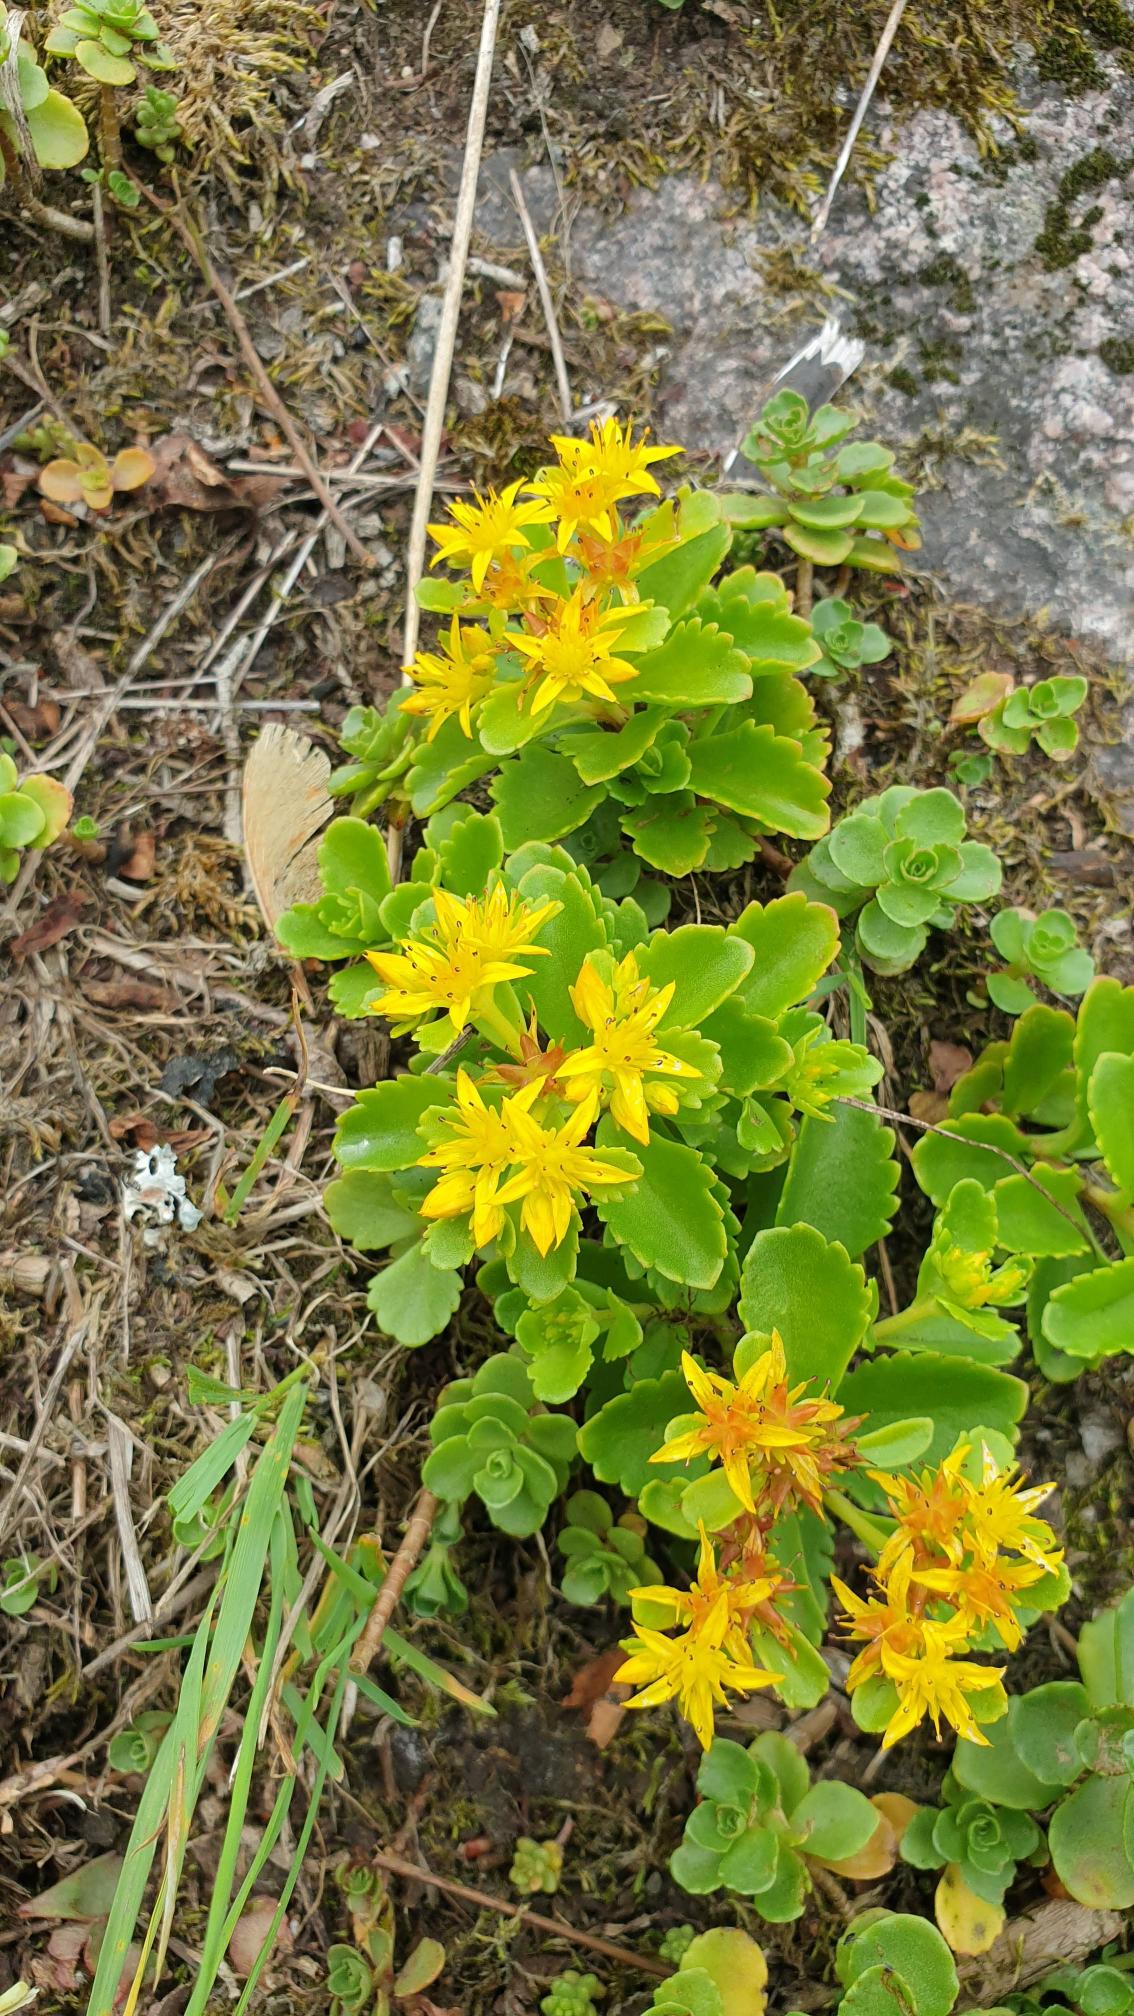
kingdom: Plantae
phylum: Tracheophyta
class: Magnoliopsida
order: Saxifragales
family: Crassulaceae
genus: Phedimus
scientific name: Phedimus hybridus
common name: Sibirisk stenurt
